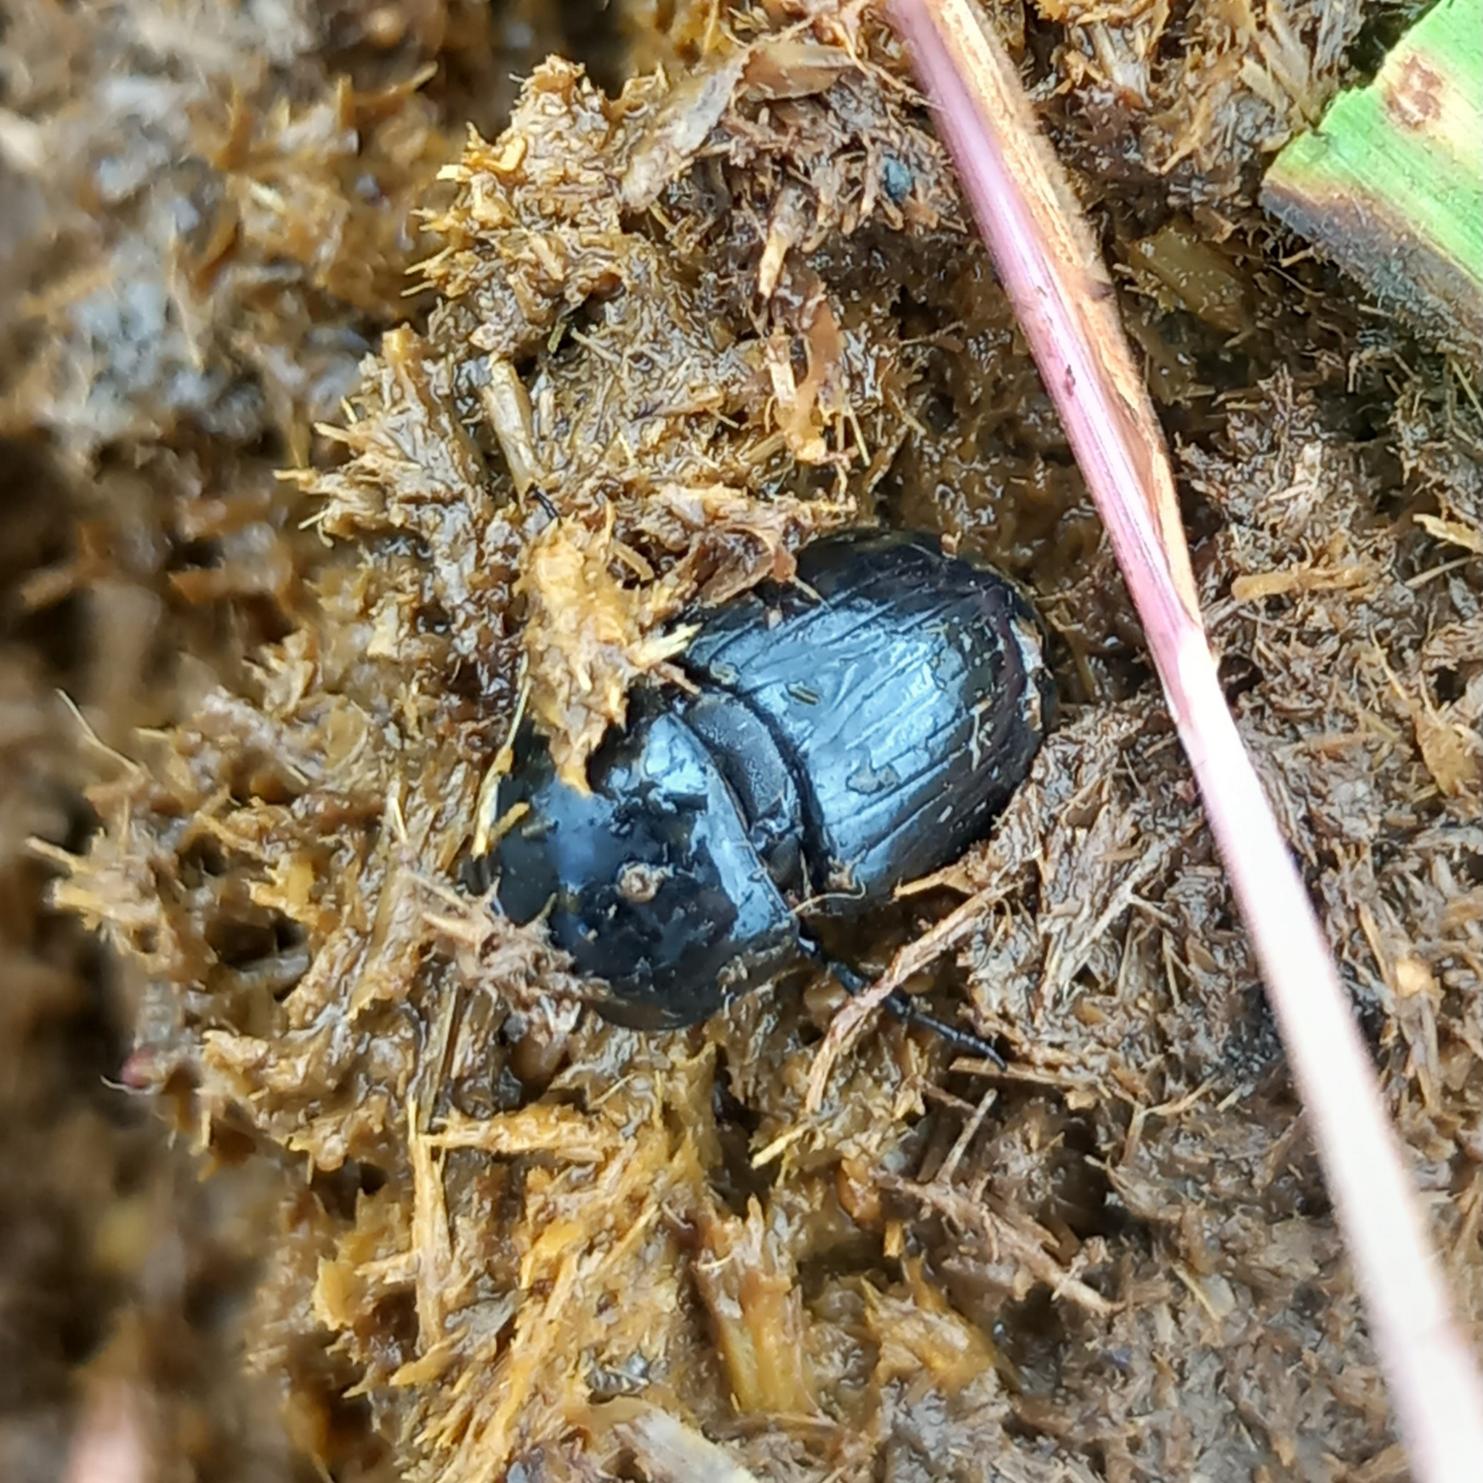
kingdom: Animalia
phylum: Arthropoda
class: Insecta
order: Coleoptera
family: Scarabaeidae
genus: Teuchestes
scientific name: Teuchestes fossor
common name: Stor møgbille
